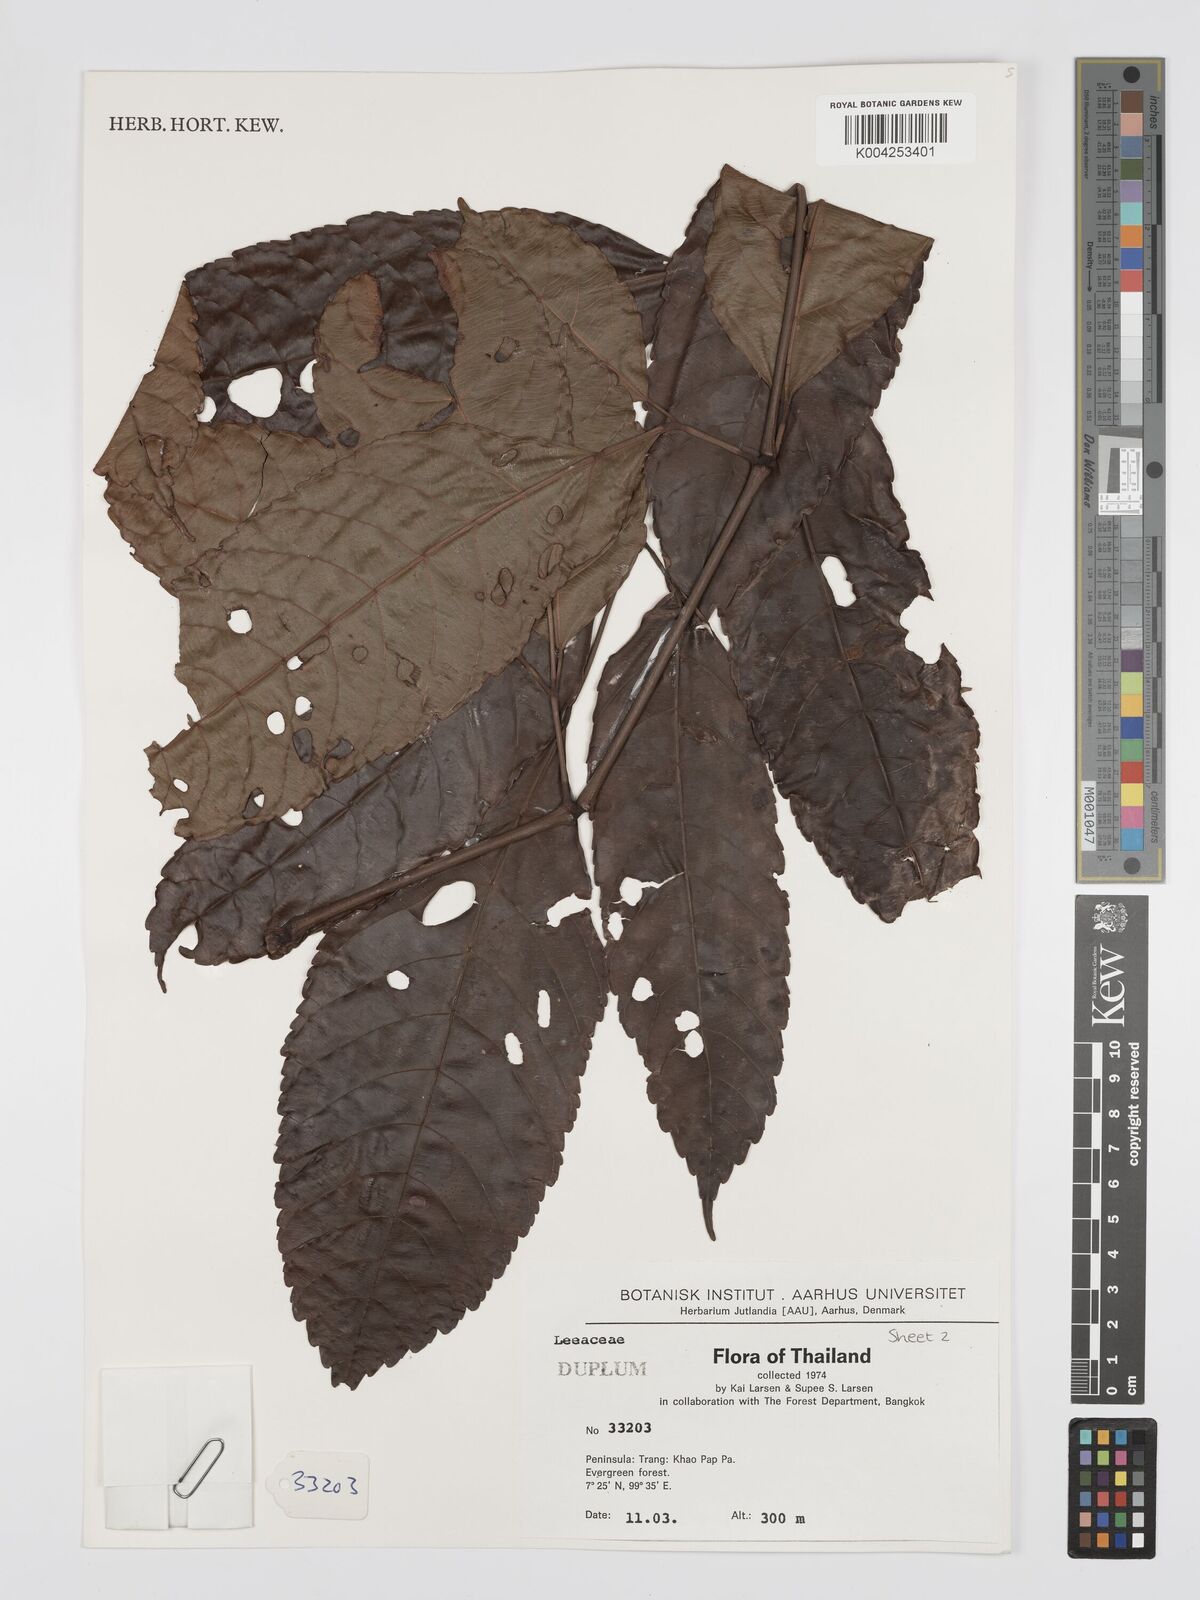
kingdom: Plantae
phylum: Tracheophyta
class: Magnoliopsida
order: Vitales
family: Vitaceae
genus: Leea
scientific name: Leea
